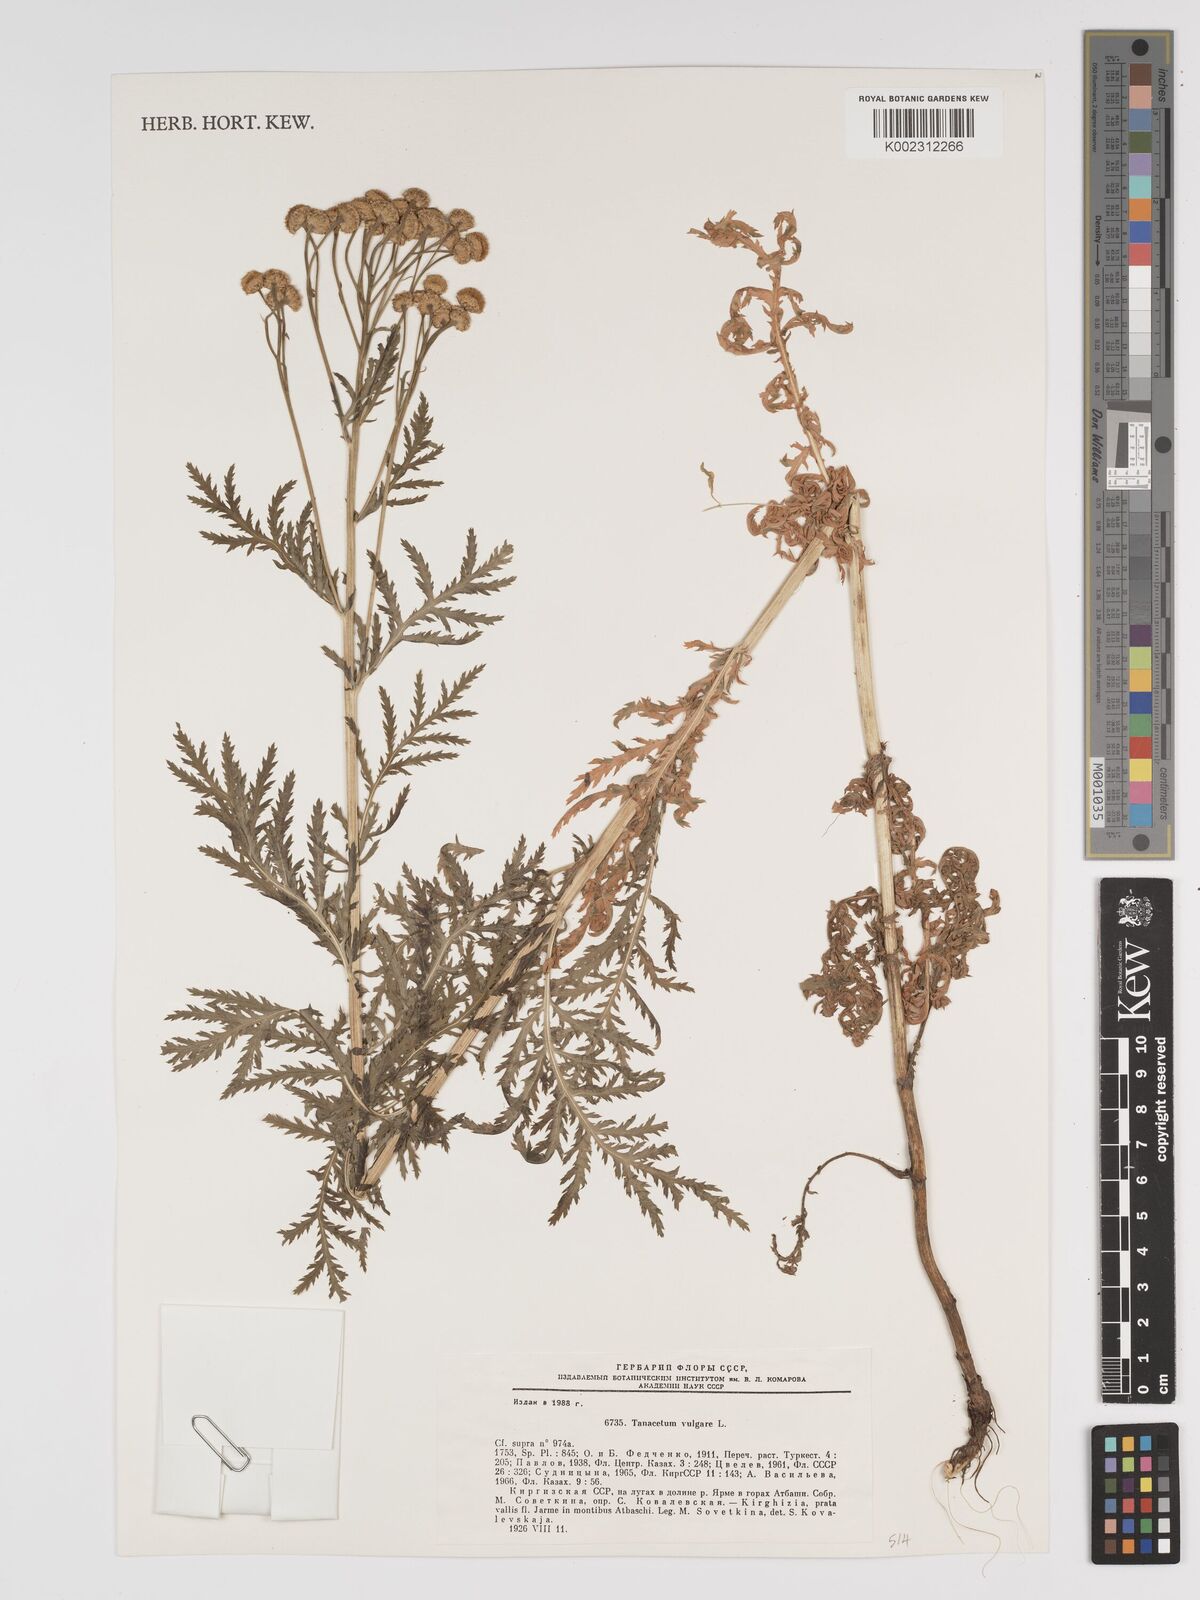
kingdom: Plantae
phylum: Tracheophyta
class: Magnoliopsida
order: Asterales
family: Asteraceae
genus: Tanacetum
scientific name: Tanacetum vulgare
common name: Common tansy
